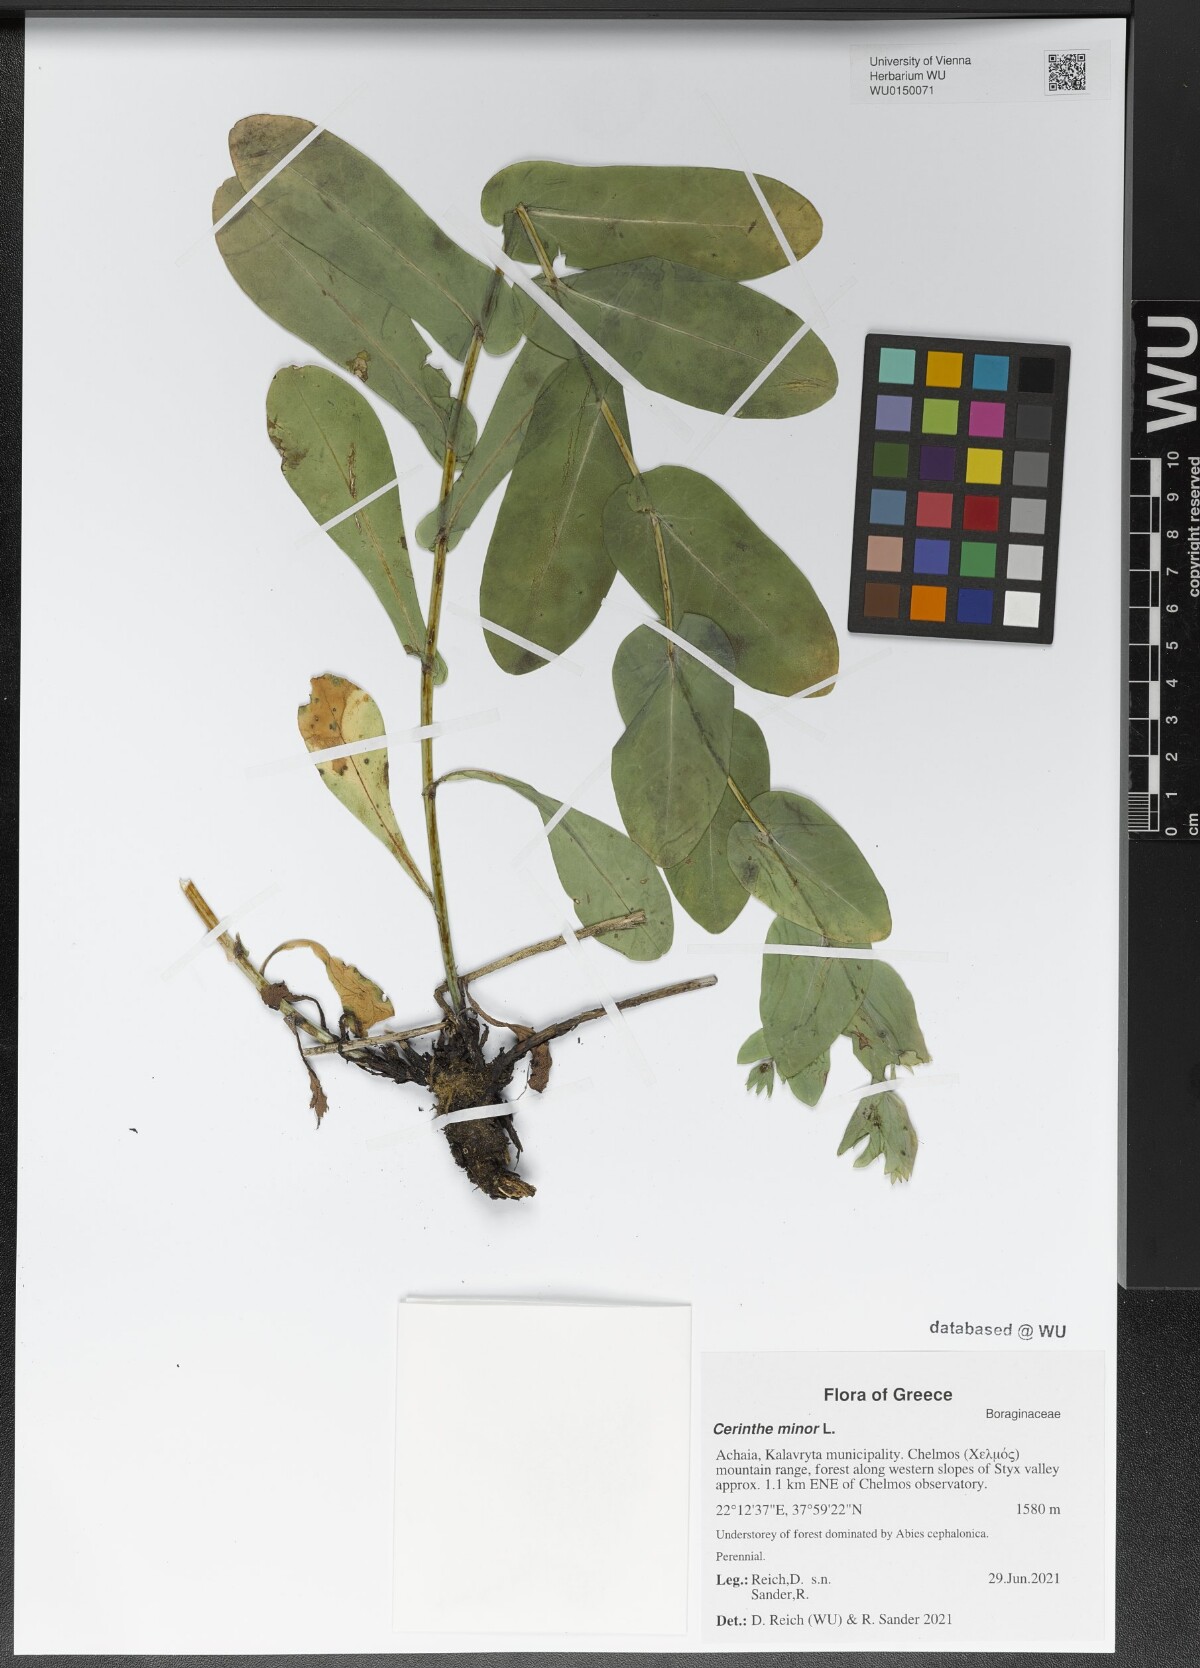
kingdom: Plantae
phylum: Tracheophyta
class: Magnoliopsida
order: Boraginales
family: Boraginaceae
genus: Cerinthe
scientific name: Cerinthe minor
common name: Lesser honeywort
